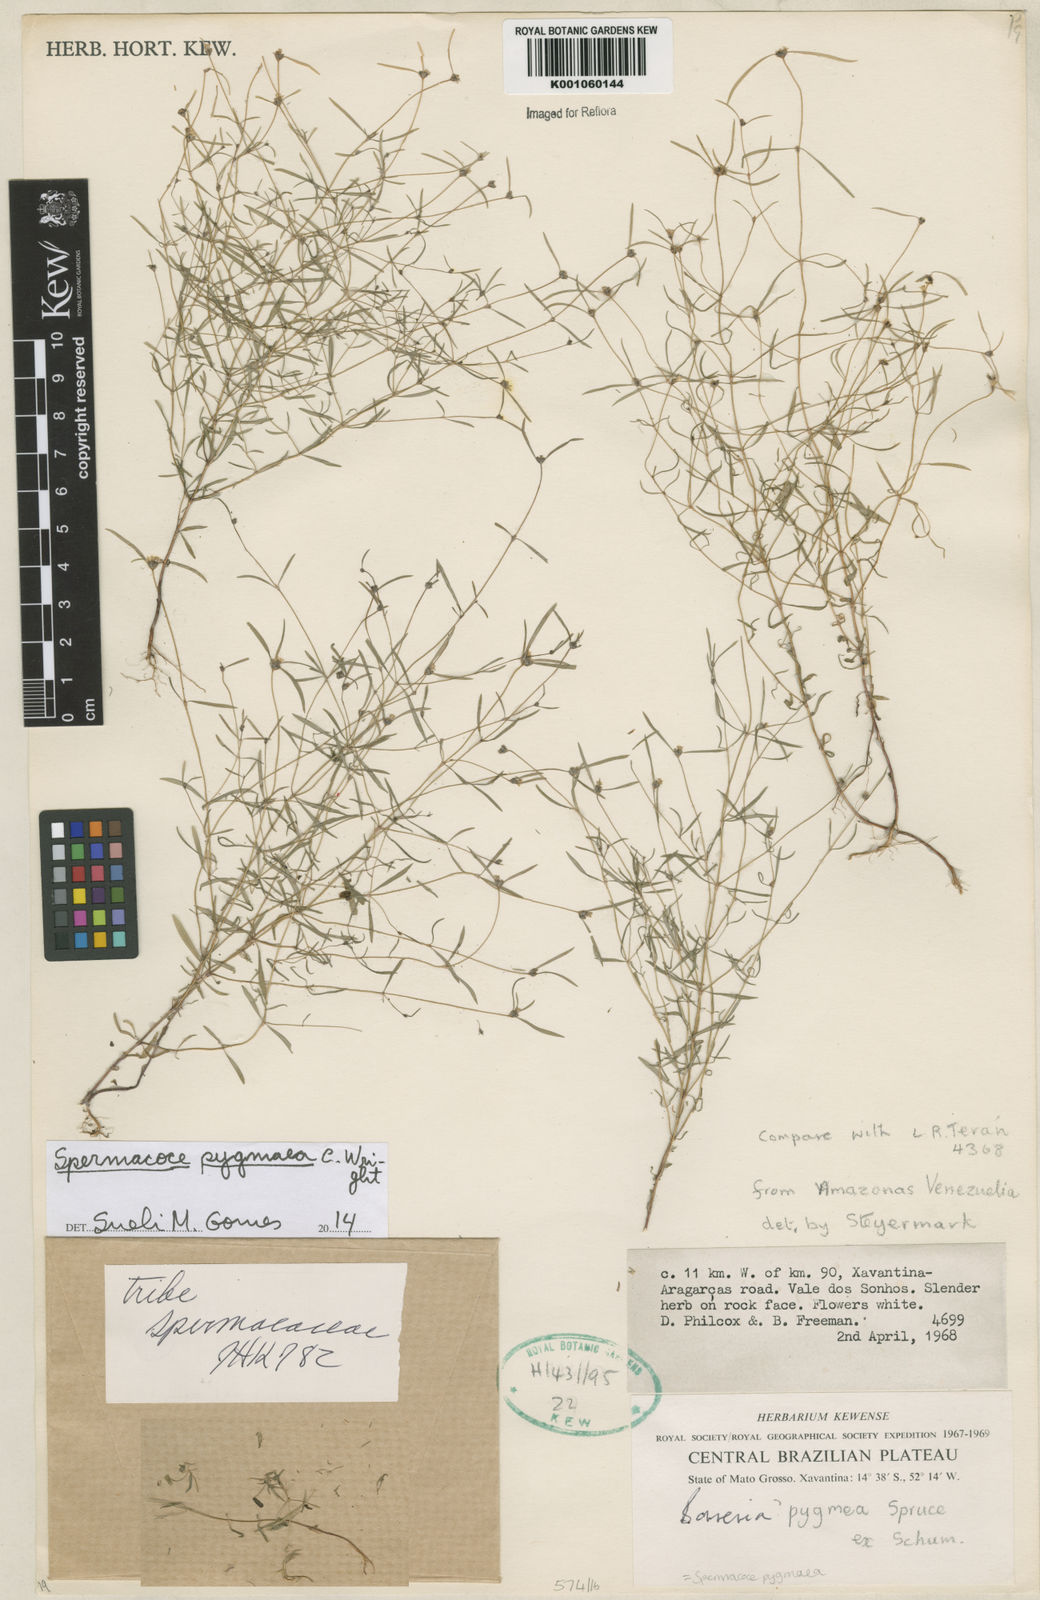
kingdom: Plantae
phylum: Tracheophyta
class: Magnoliopsida
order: Gentianales
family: Rubiaceae
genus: Spermacoce
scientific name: Spermacoce verticillata
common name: Shrubby false buttonweed
